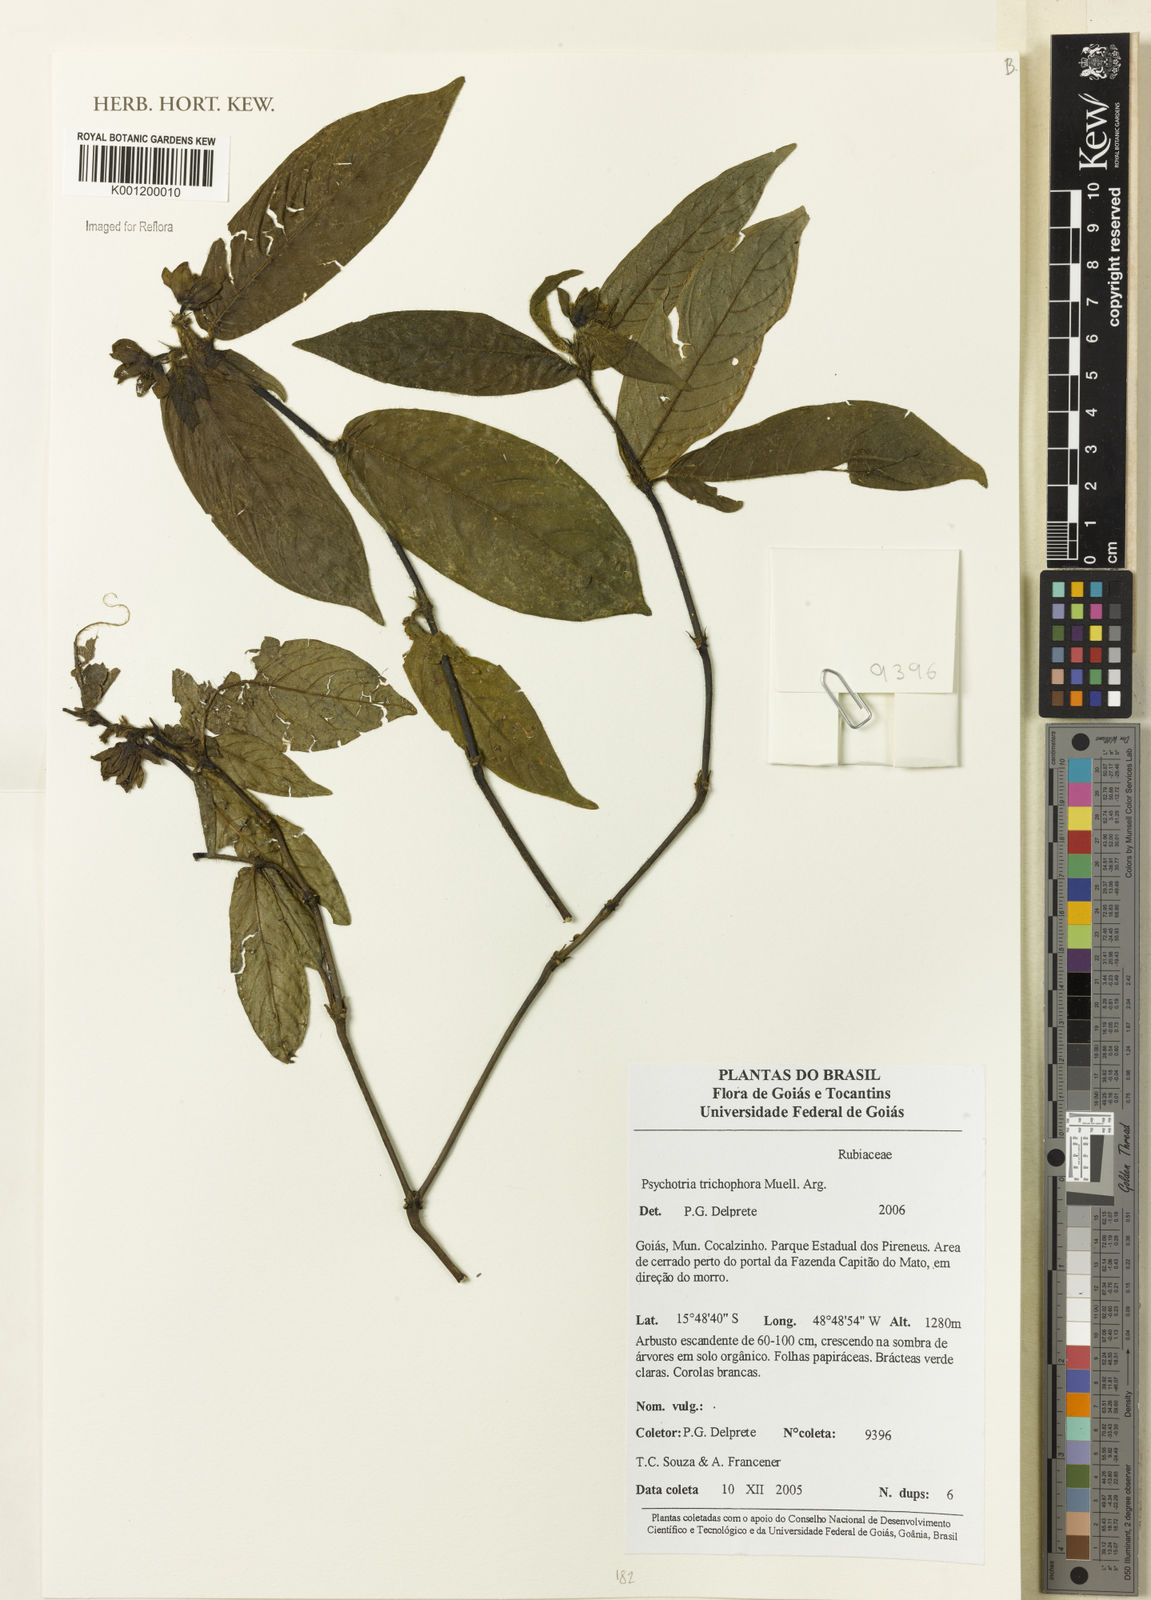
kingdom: Plantae
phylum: Tracheophyta
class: Magnoliopsida
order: Gentianales
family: Rubiaceae
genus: Psychotria
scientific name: Psychotria
